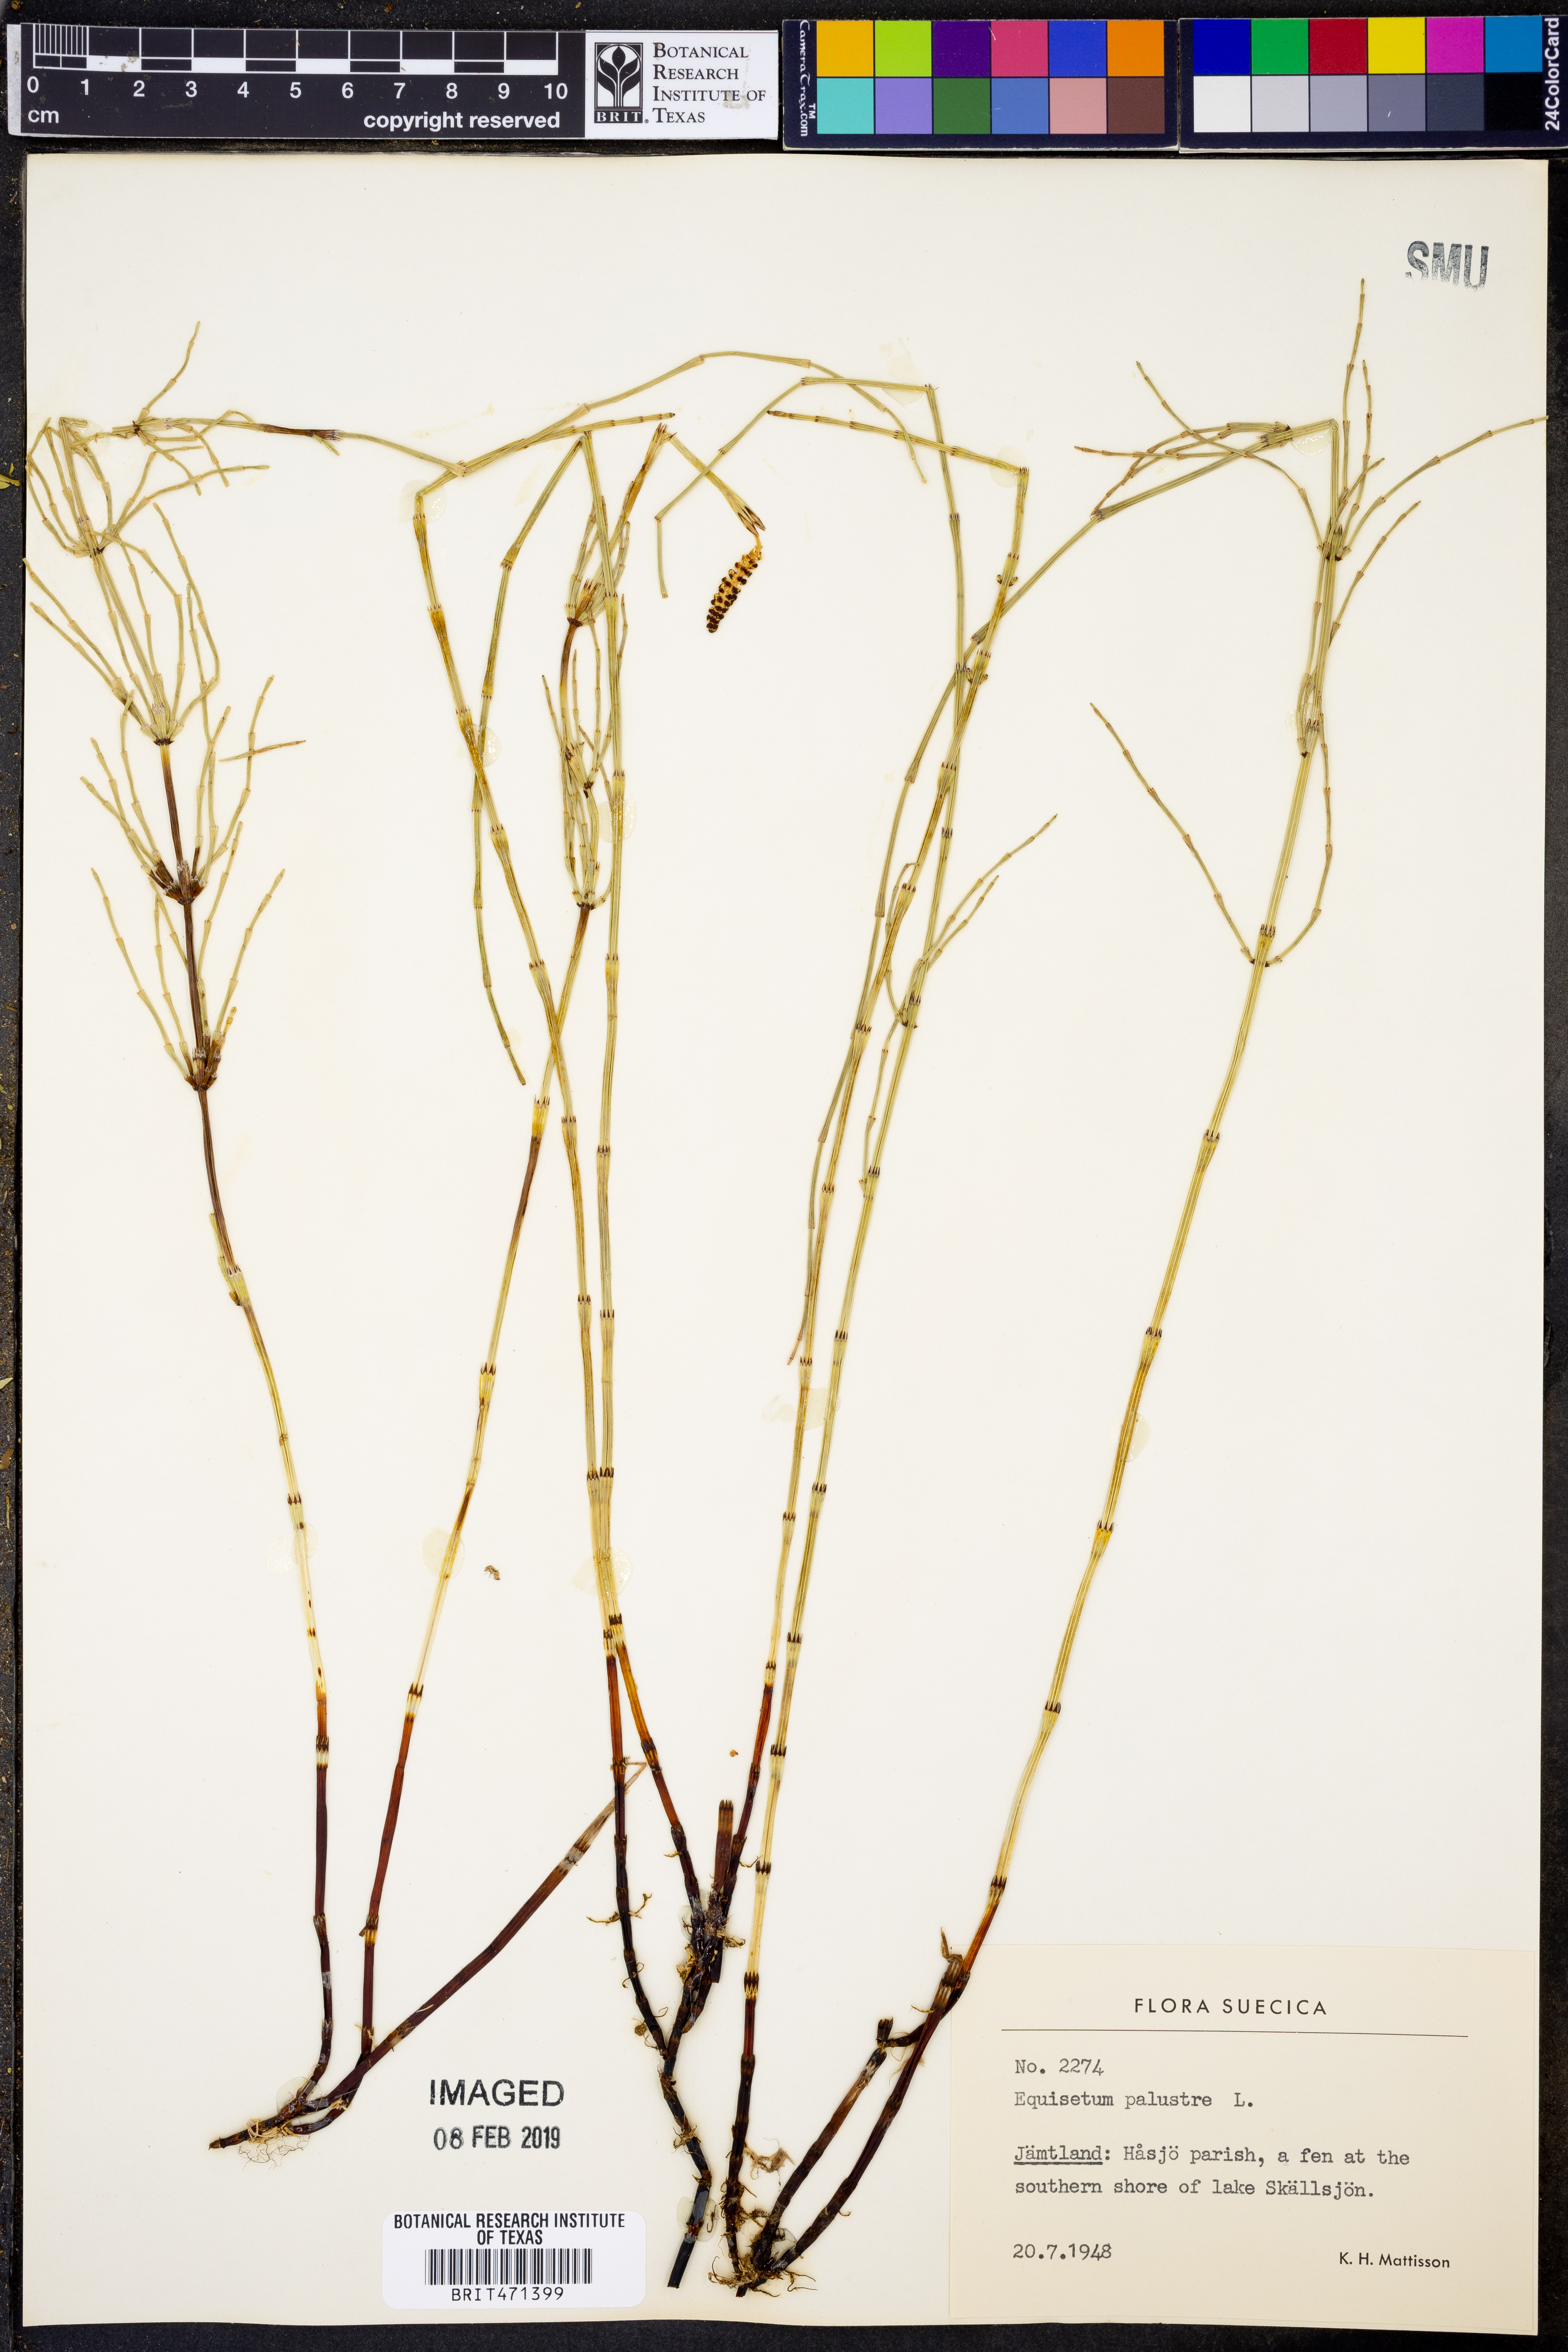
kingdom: Plantae
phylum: Tracheophyta
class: Polypodiopsida
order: Equisetales
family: Equisetaceae
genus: Equisetum
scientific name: Equisetum palustre
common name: Marsh horsetail
